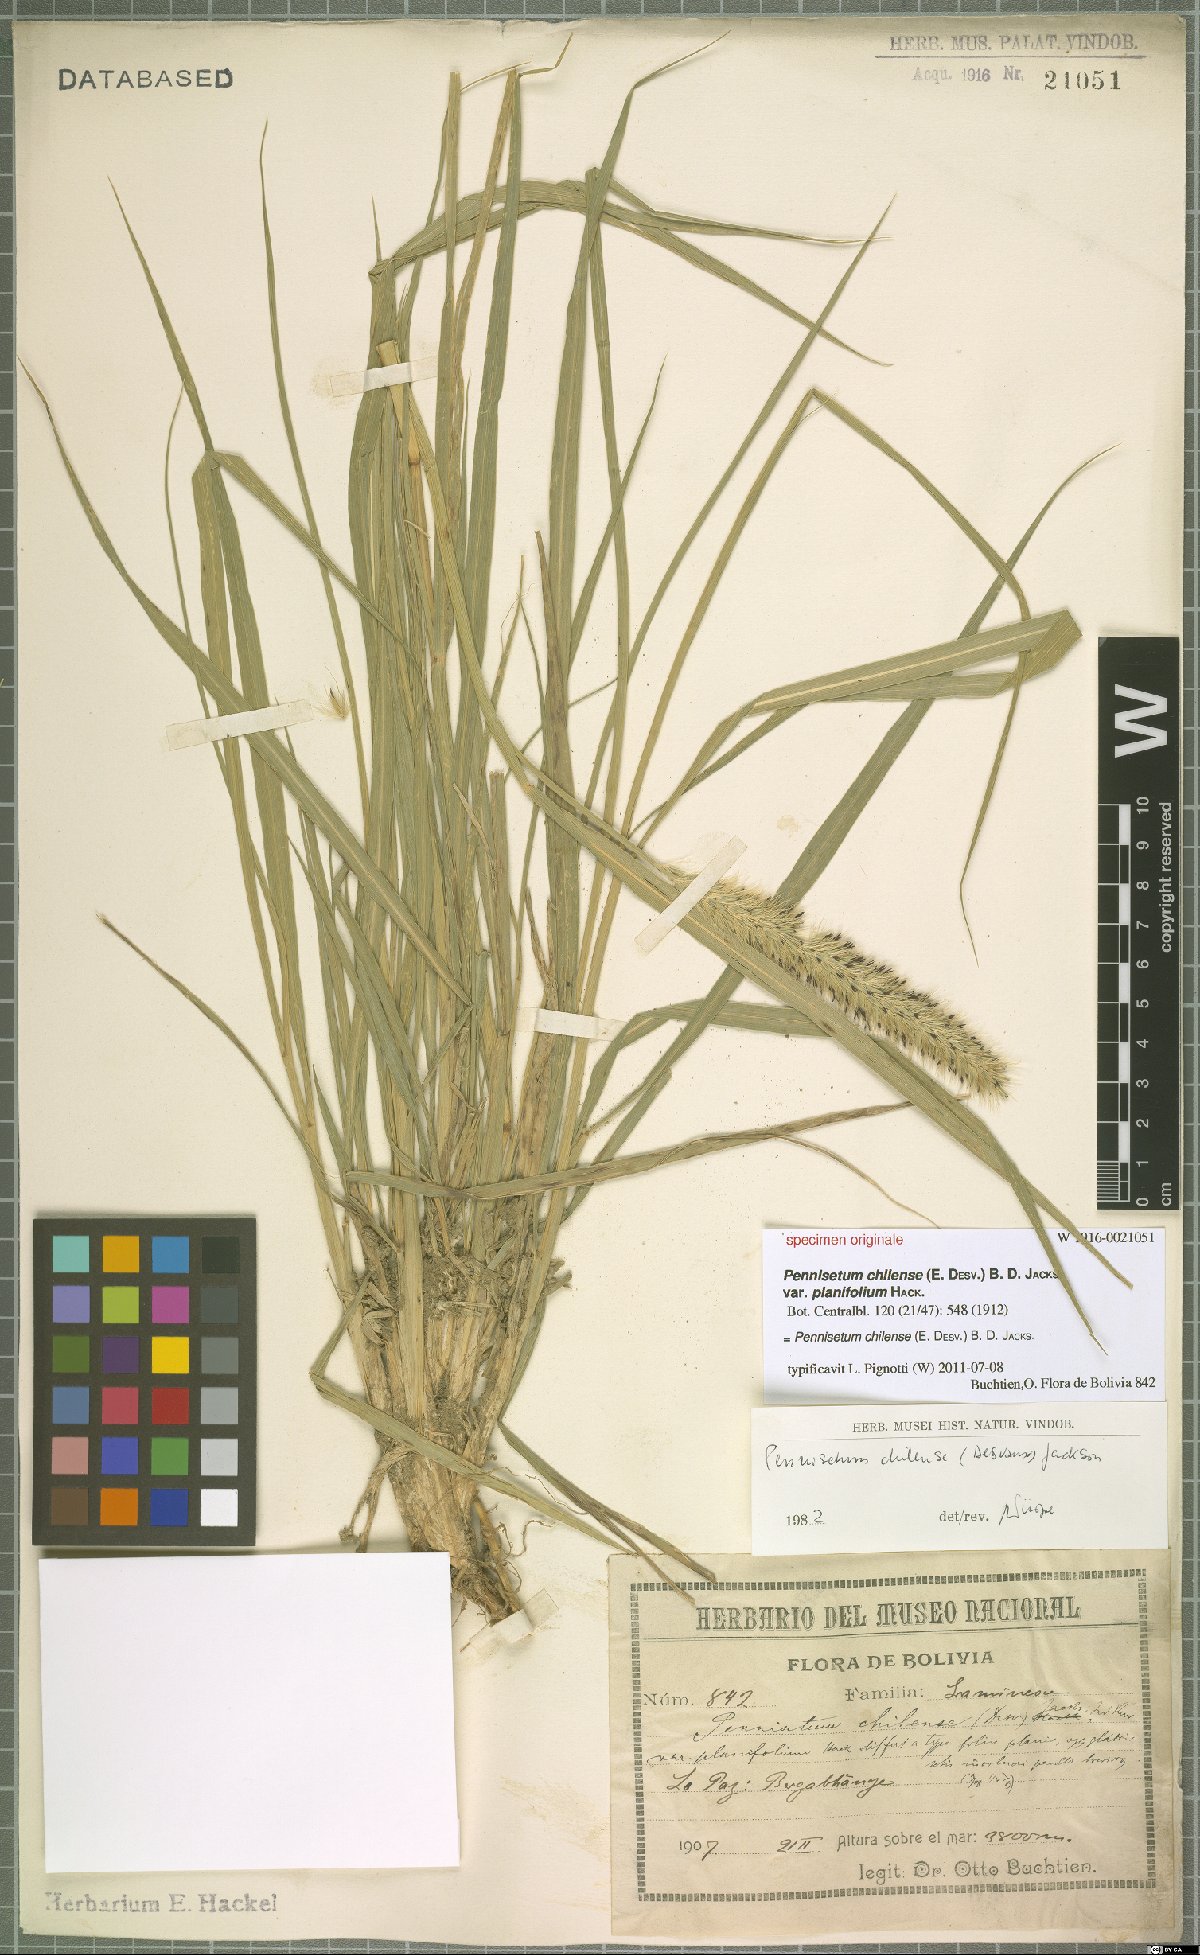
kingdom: Plantae
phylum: Tracheophyta
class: Liliopsida
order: Poales
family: Poaceae
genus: Cenchrus
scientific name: Cenchrus chilensis
